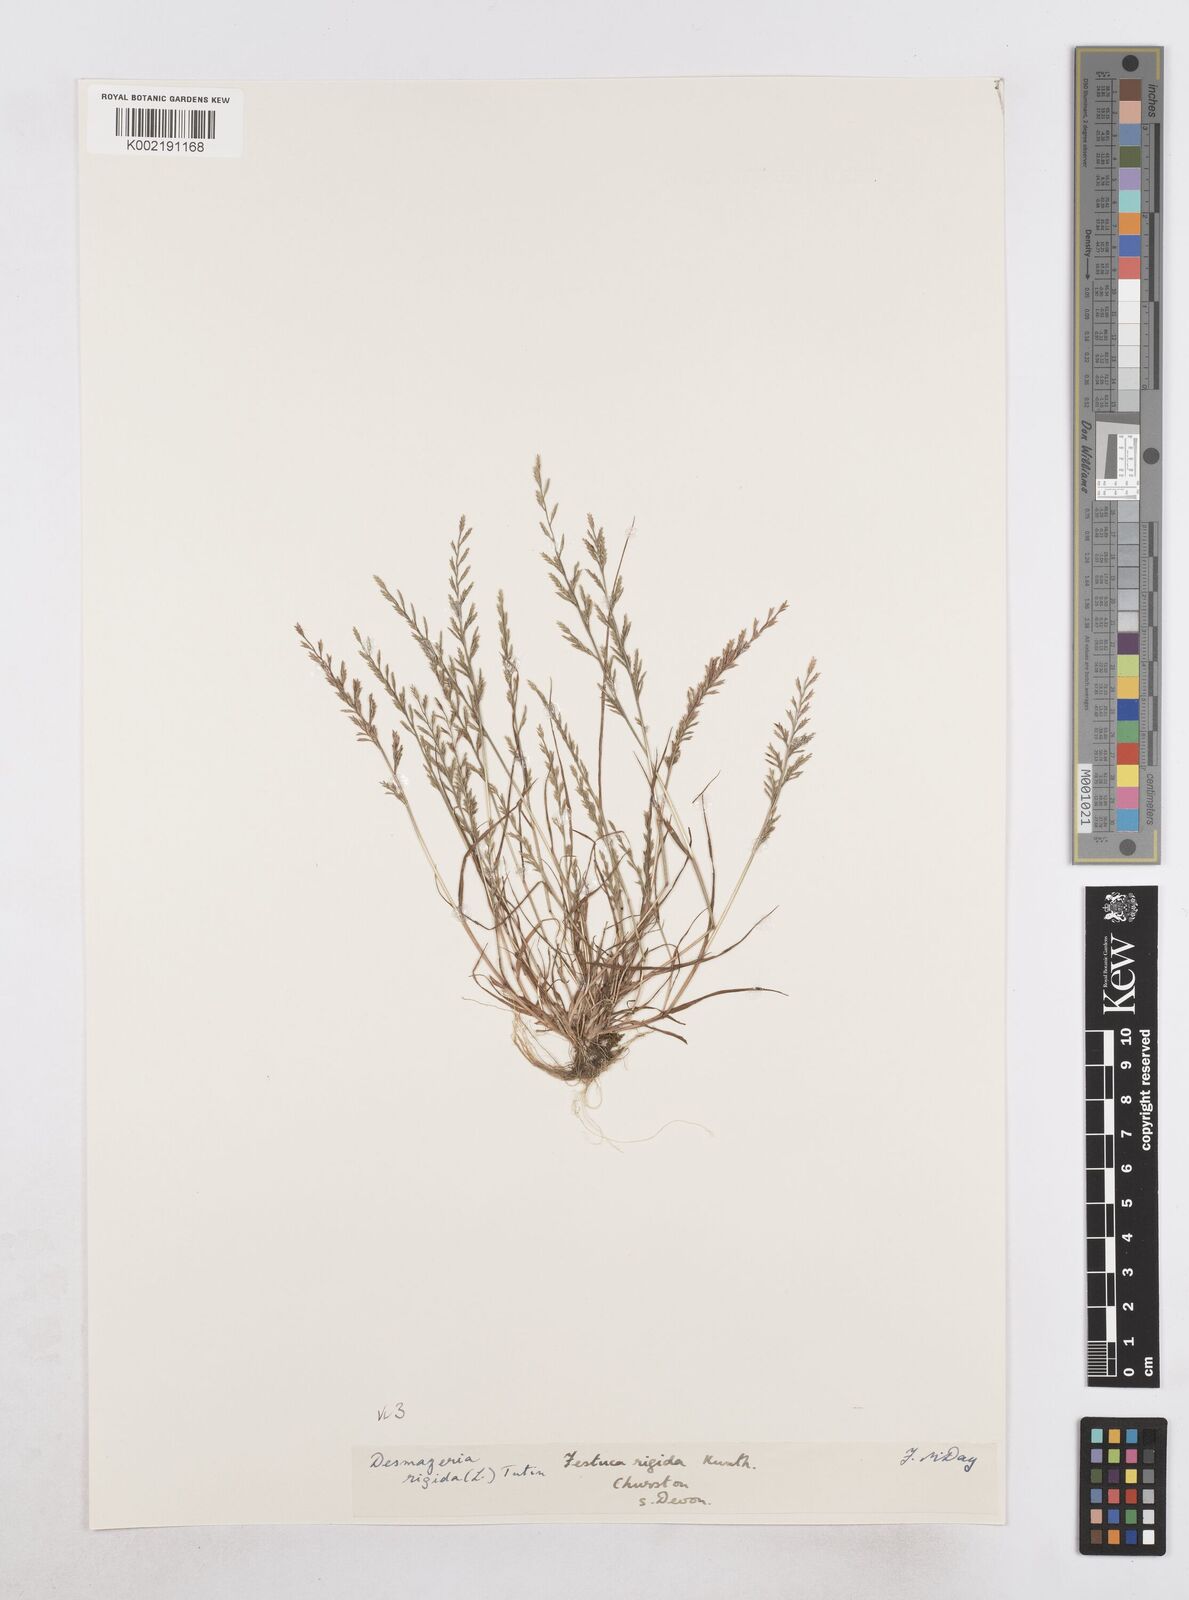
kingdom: Plantae
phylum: Tracheophyta
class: Liliopsida
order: Poales
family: Poaceae
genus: Catapodium
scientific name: Catapodium rigidum
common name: Fern-grass
